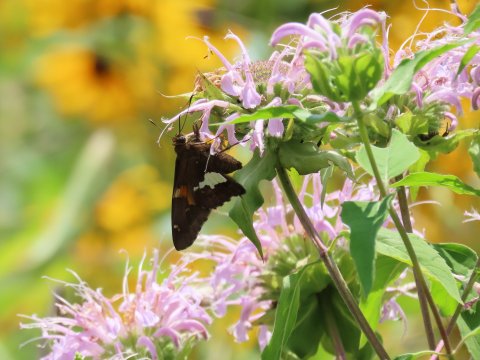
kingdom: Animalia
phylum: Arthropoda
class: Insecta
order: Lepidoptera
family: Hesperiidae
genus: Epargyreus
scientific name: Epargyreus clarus
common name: Silver-spotted Skipper
